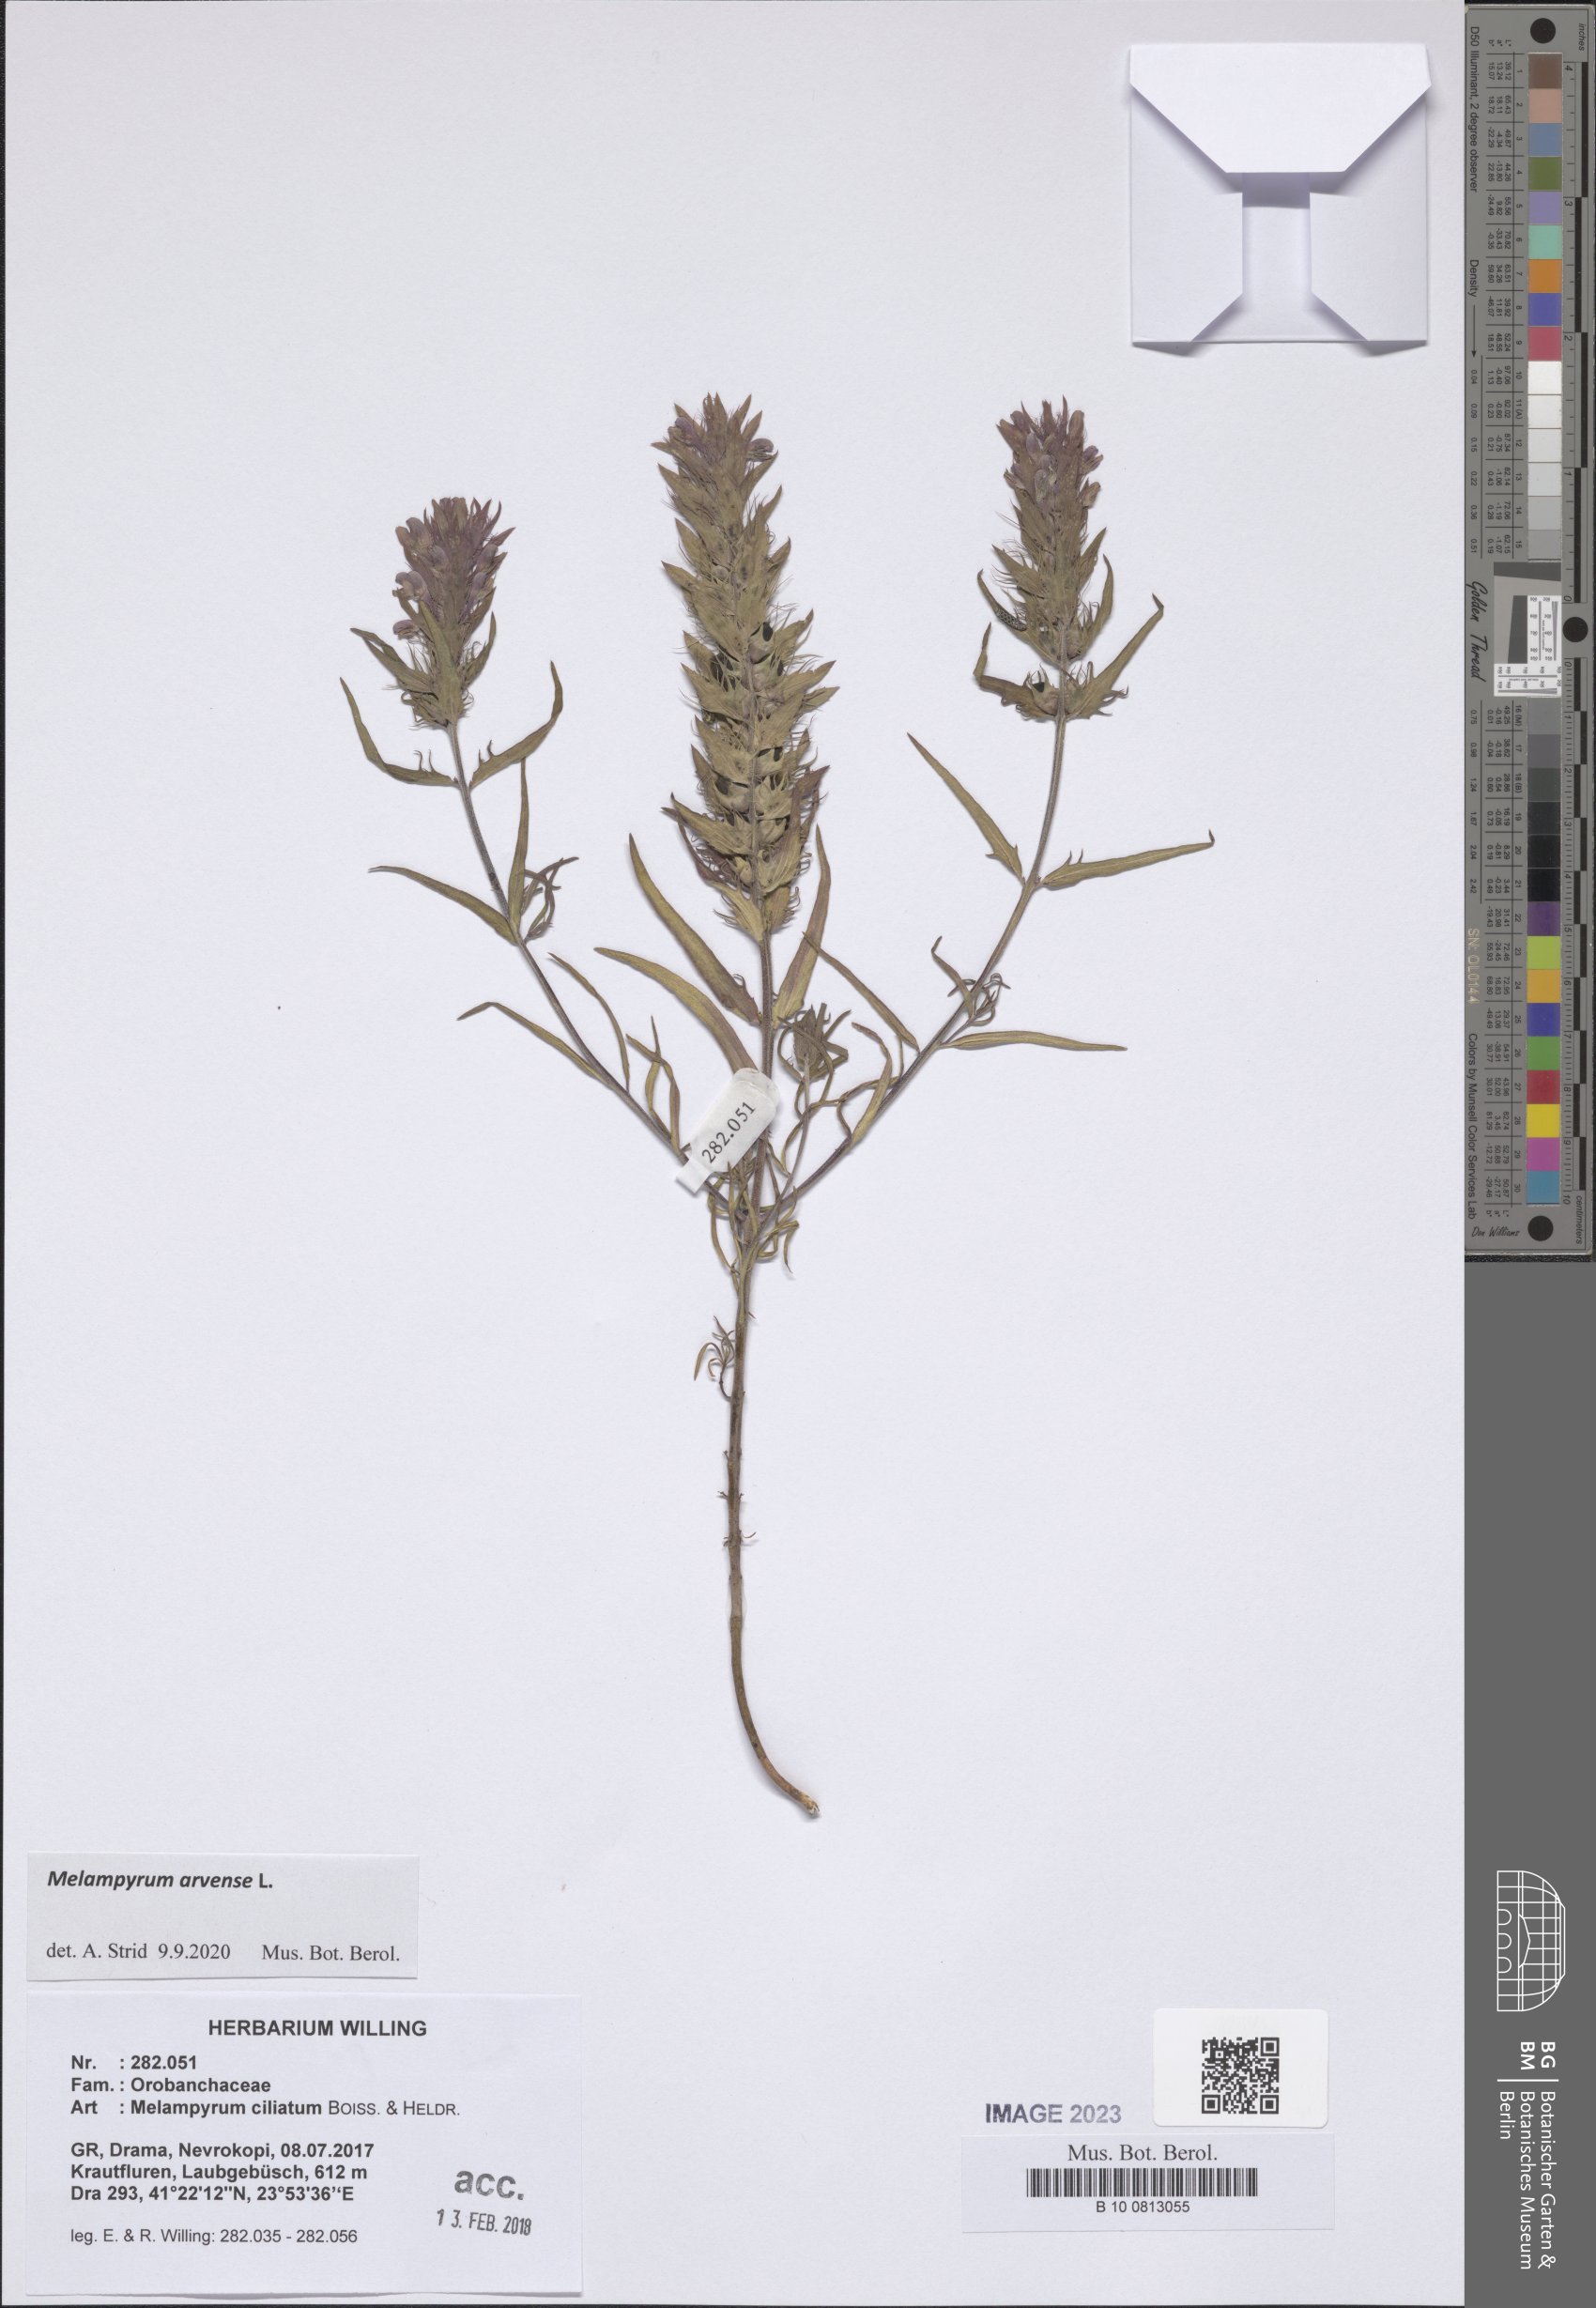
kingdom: Plantae
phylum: Tracheophyta
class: Magnoliopsida
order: Lamiales
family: Orobanchaceae
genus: Melampyrum
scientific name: Melampyrum arvense
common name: Field cow-wheat
